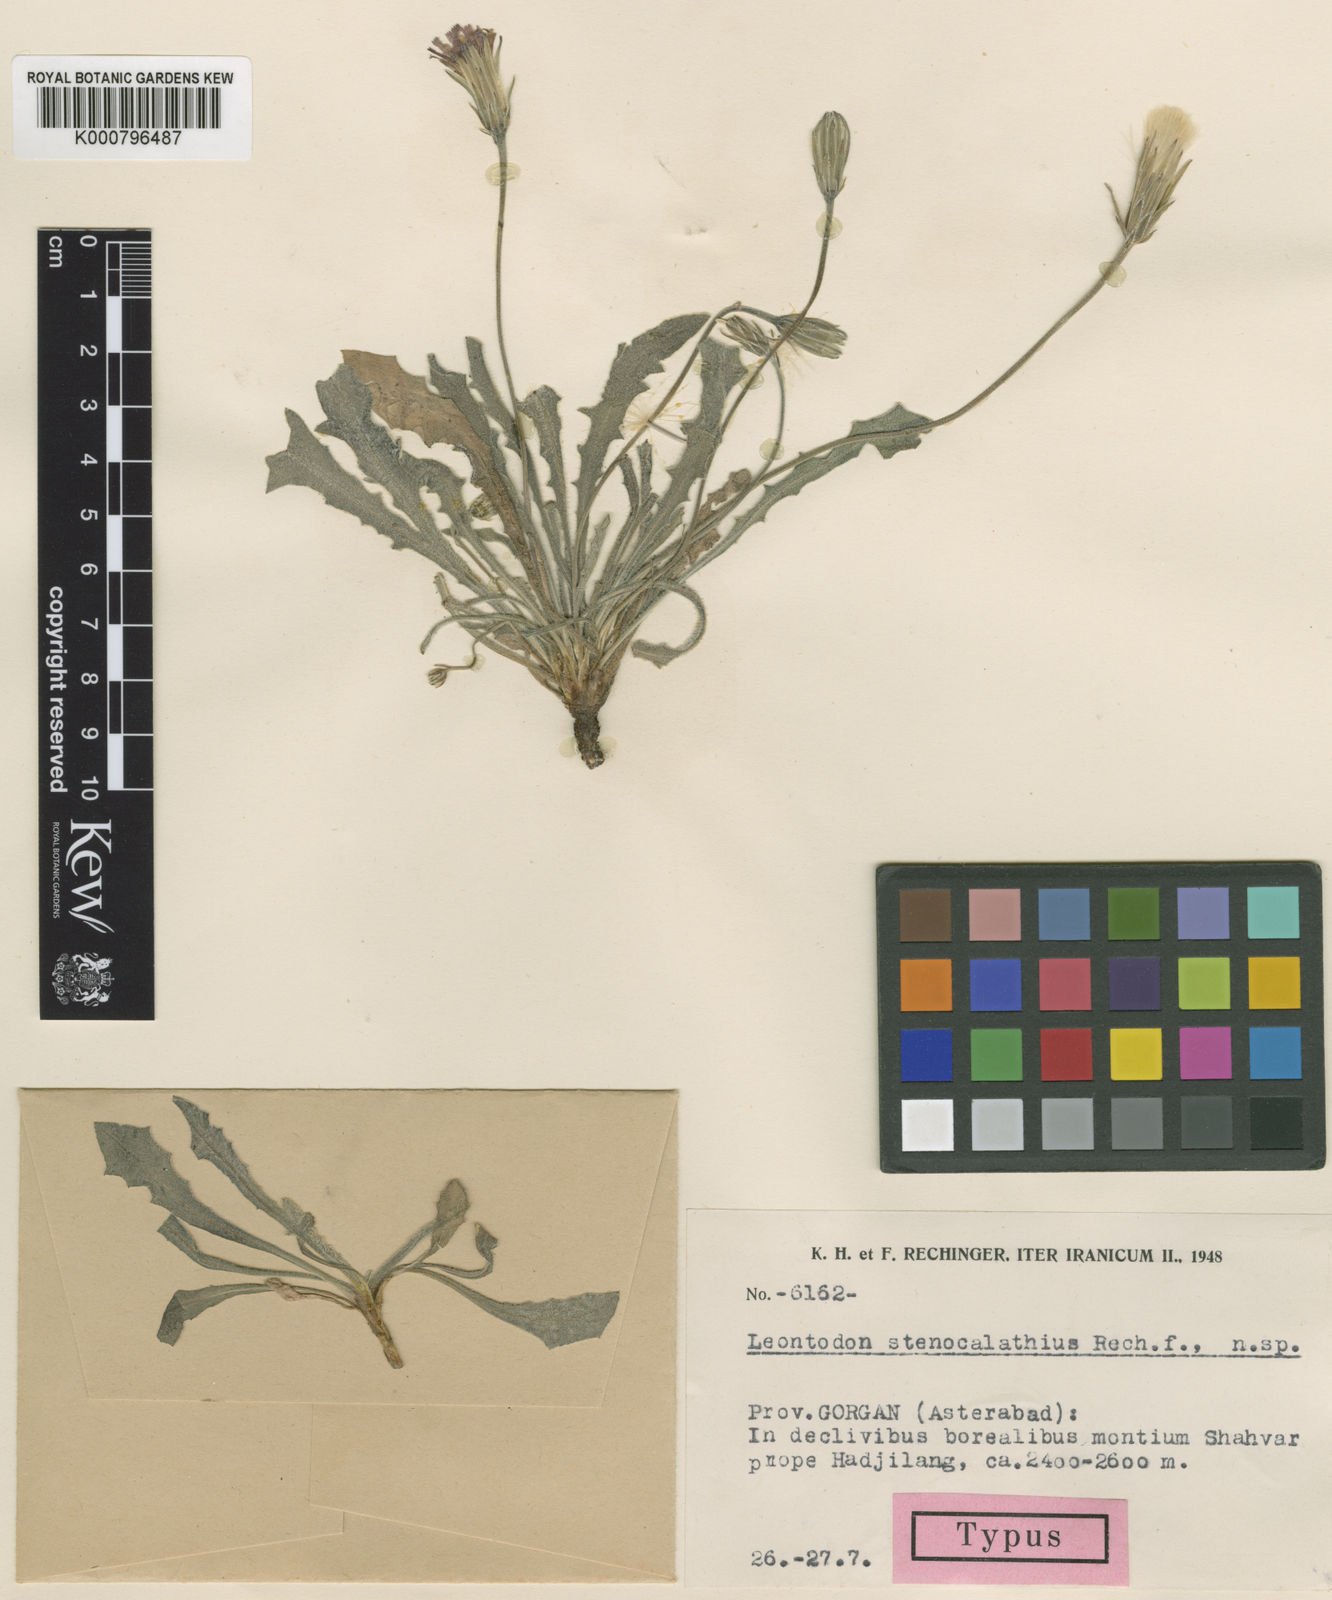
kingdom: Plantae
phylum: Tracheophyta
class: Magnoliopsida
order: Asterales
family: Asteraceae
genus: Leontodon
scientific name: Leontodon stenocalathius
